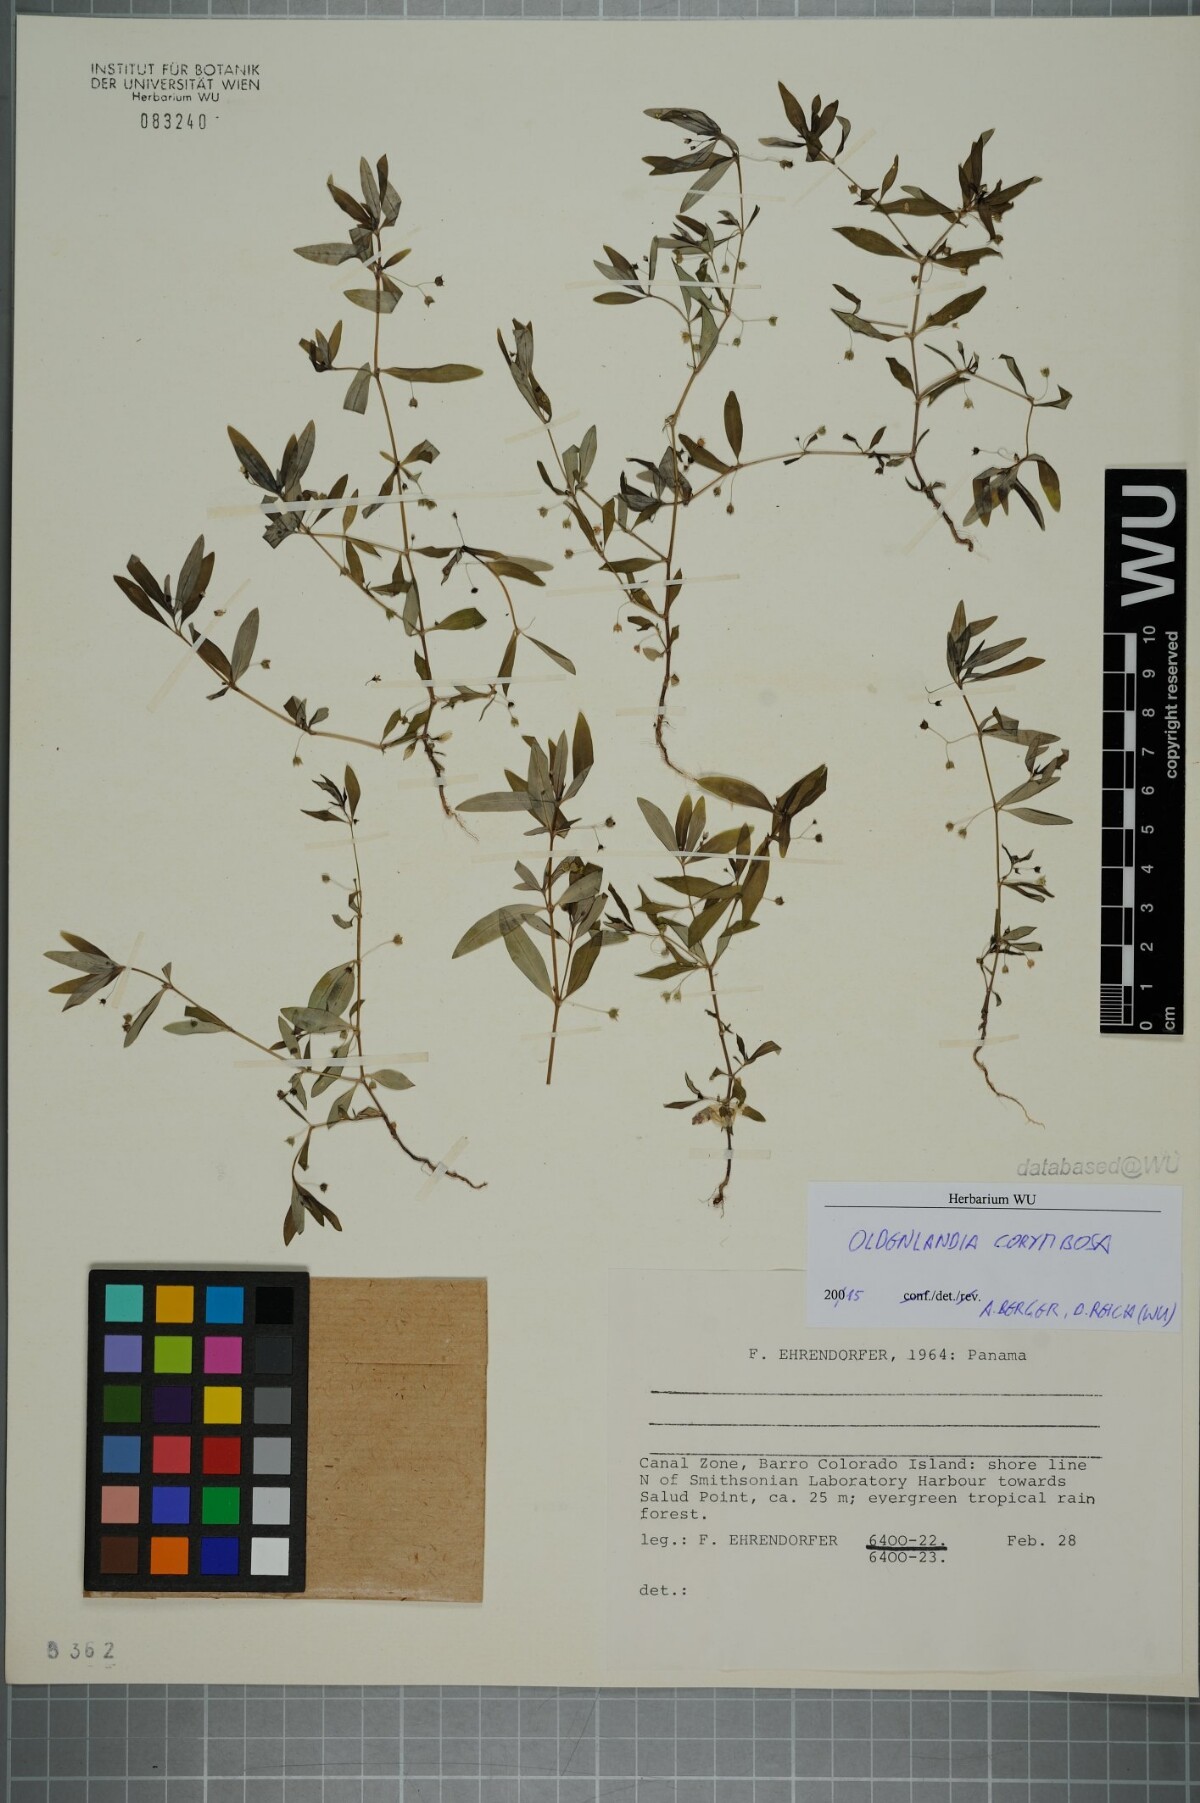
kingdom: Plantae
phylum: Tracheophyta
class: Magnoliopsida
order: Gentianales
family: Rubiaceae
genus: Oldenlandia
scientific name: Oldenlandia corymbosa
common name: Flat-top mille graines
